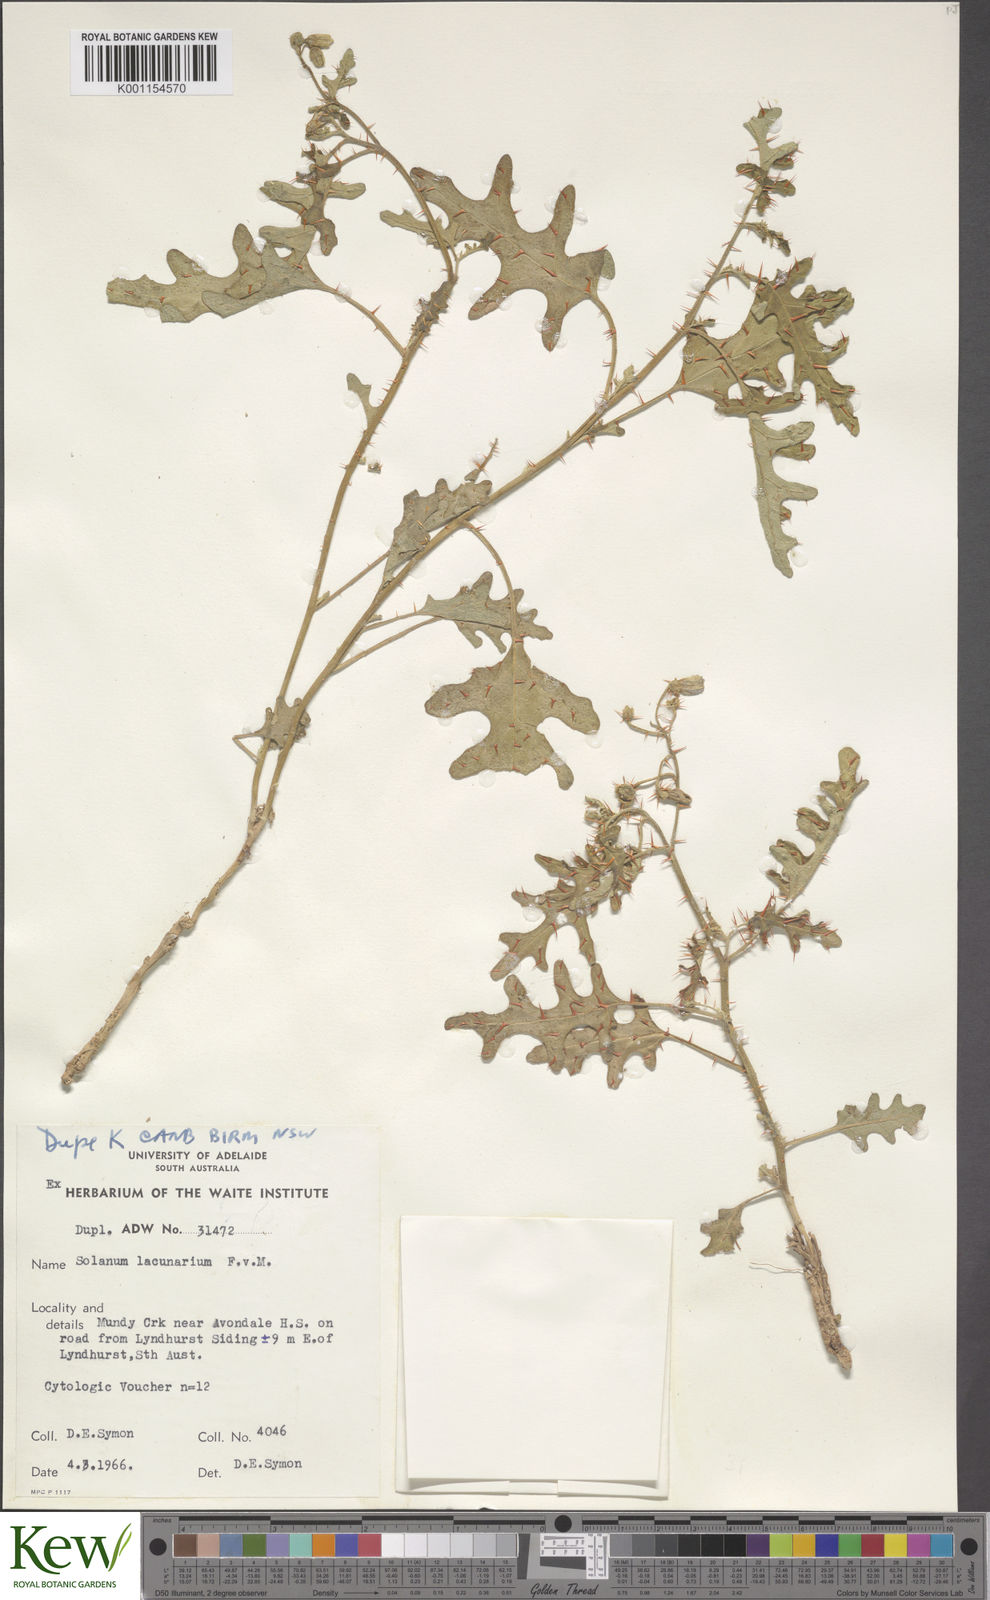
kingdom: Plantae
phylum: Tracheophyta
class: Magnoliopsida
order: Solanales
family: Solanaceae
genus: Solanum
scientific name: Solanum lacunarium
